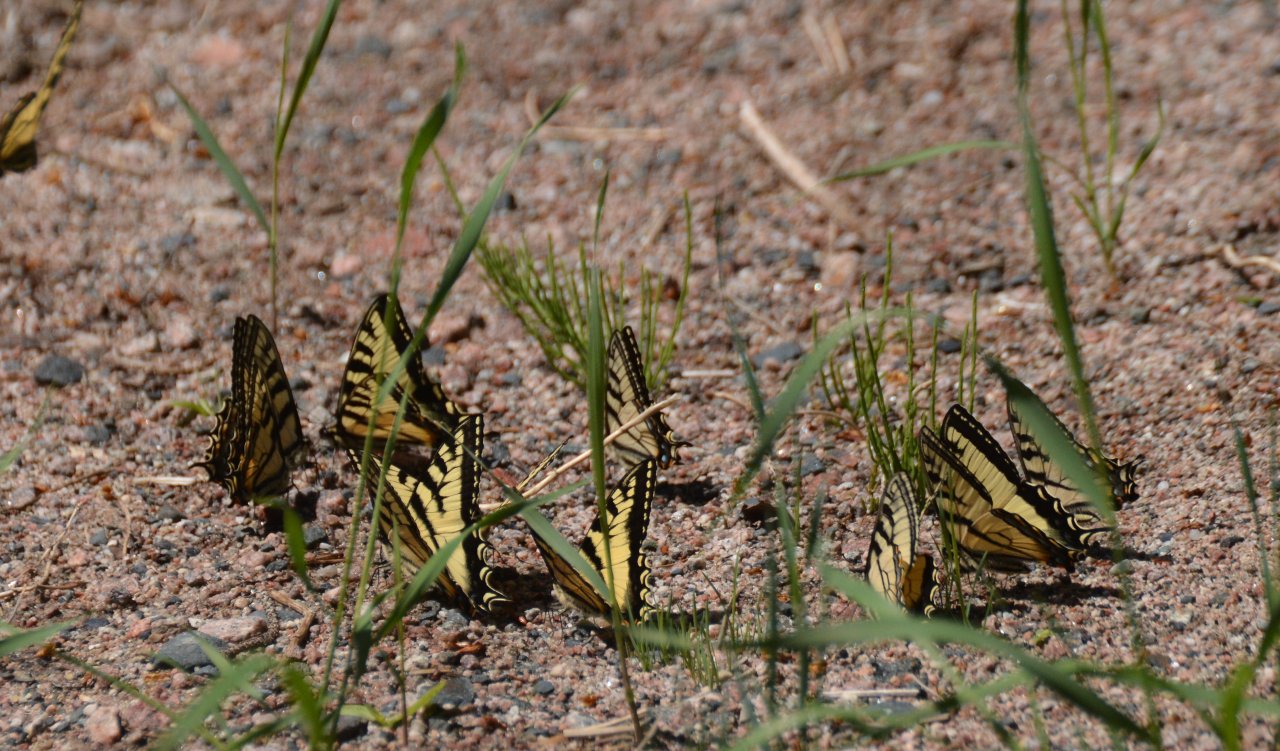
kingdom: Animalia
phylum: Arthropoda
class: Insecta
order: Lepidoptera
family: Papilionidae
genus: Pterourus
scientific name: Pterourus canadensis
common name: Canadian Tiger Swallowtail
